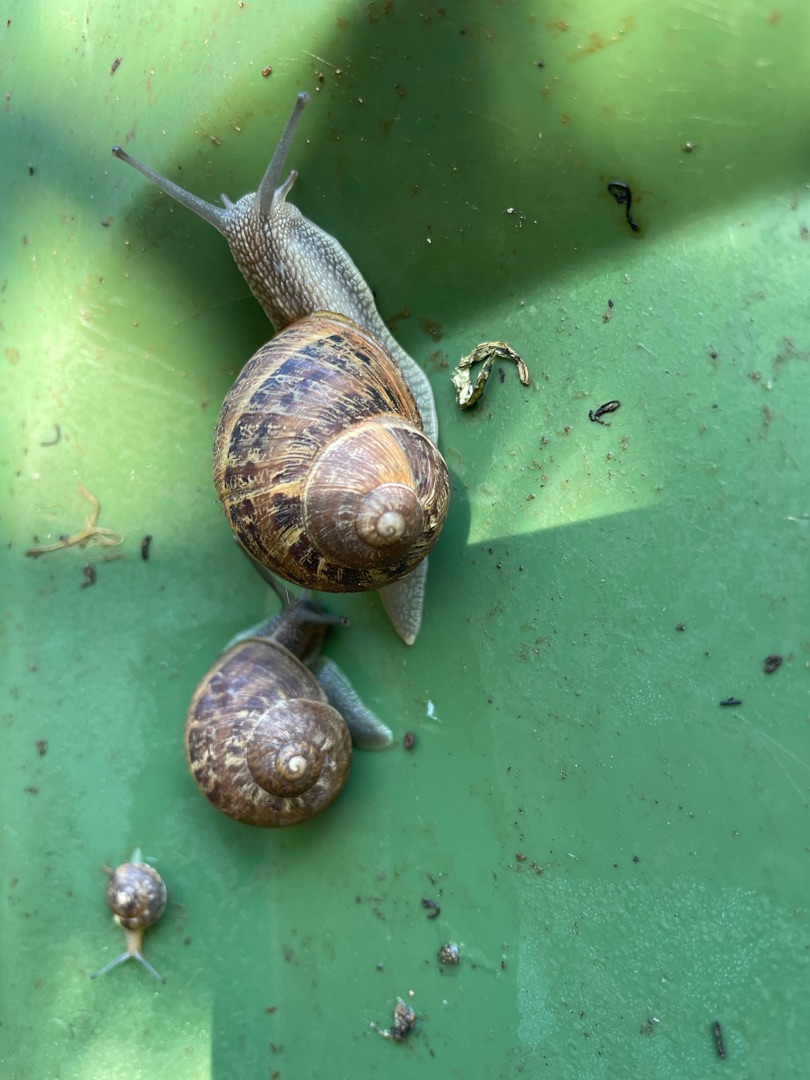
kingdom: Animalia
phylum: Mollusca
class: Gastropoda
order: Stylommatophora
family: Helicidae
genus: Cornu
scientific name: Cornu aspersum
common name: Plettet voldsnegl
